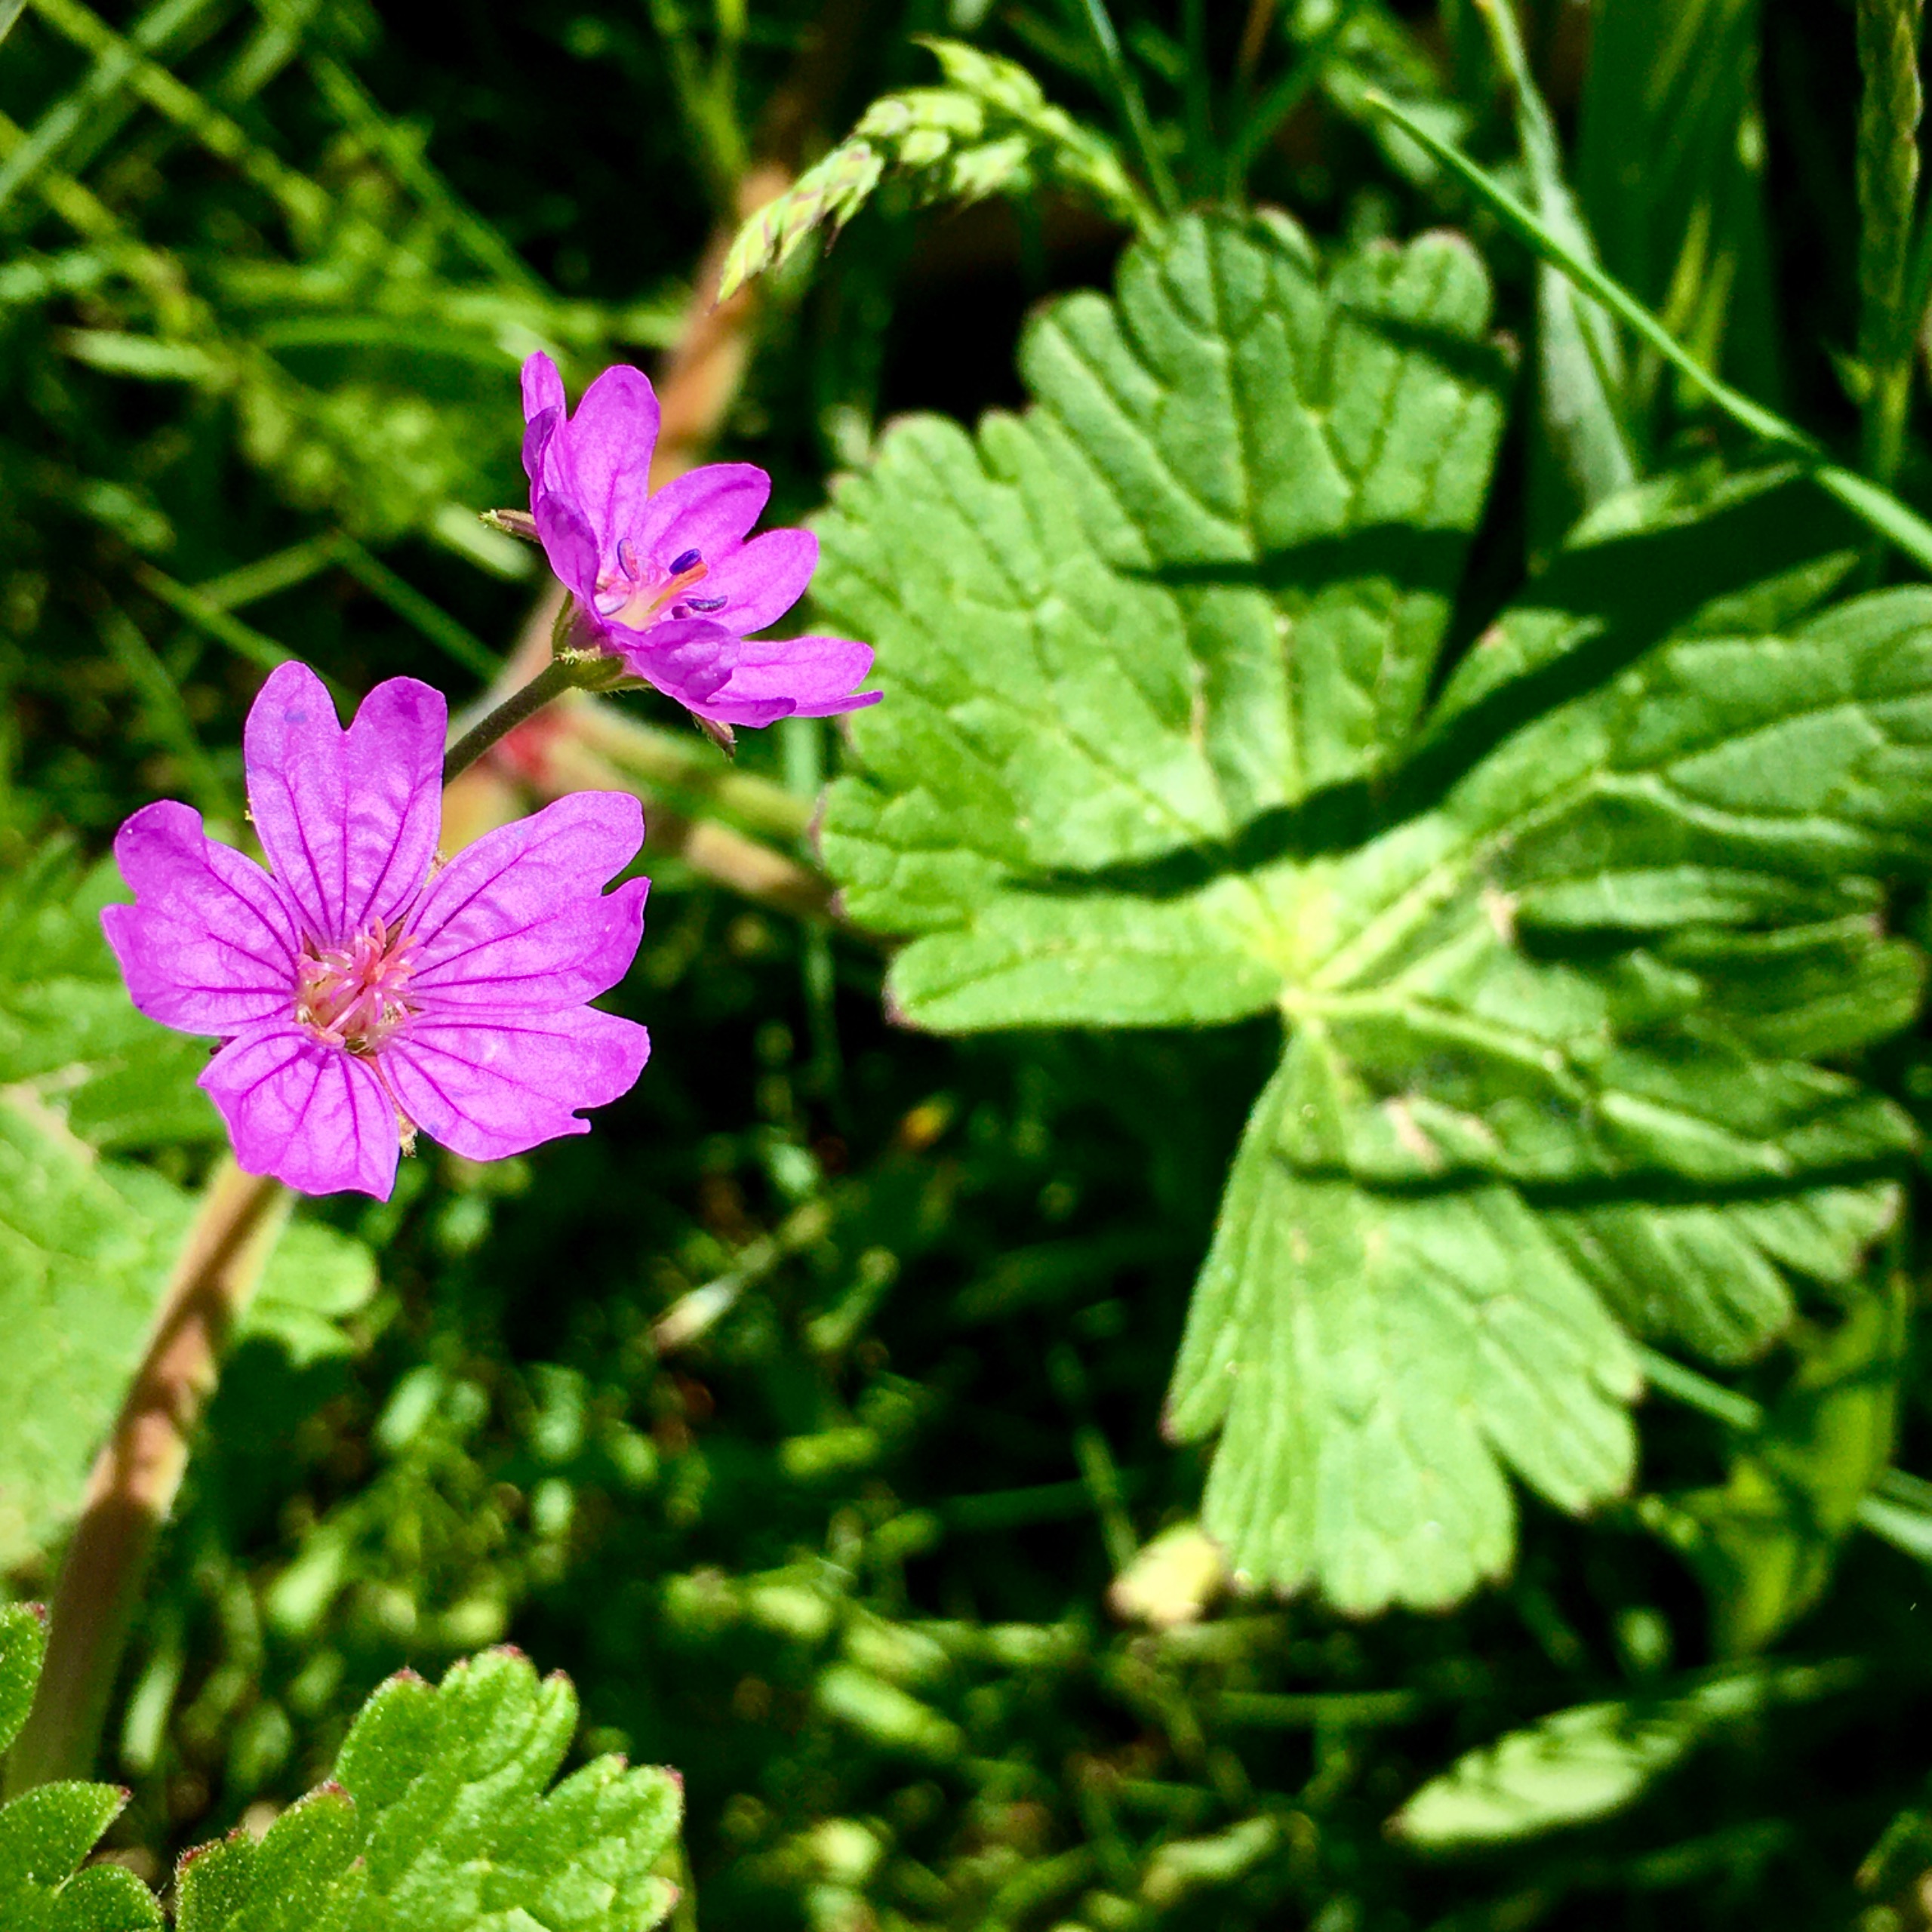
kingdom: Plantae
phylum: Tracheophyta
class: Magnoliopsida
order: Geraniales
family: Geraniaceae
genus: Geranium
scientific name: Geranium pyrenaicum
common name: Pyrenæisk storkenæb
